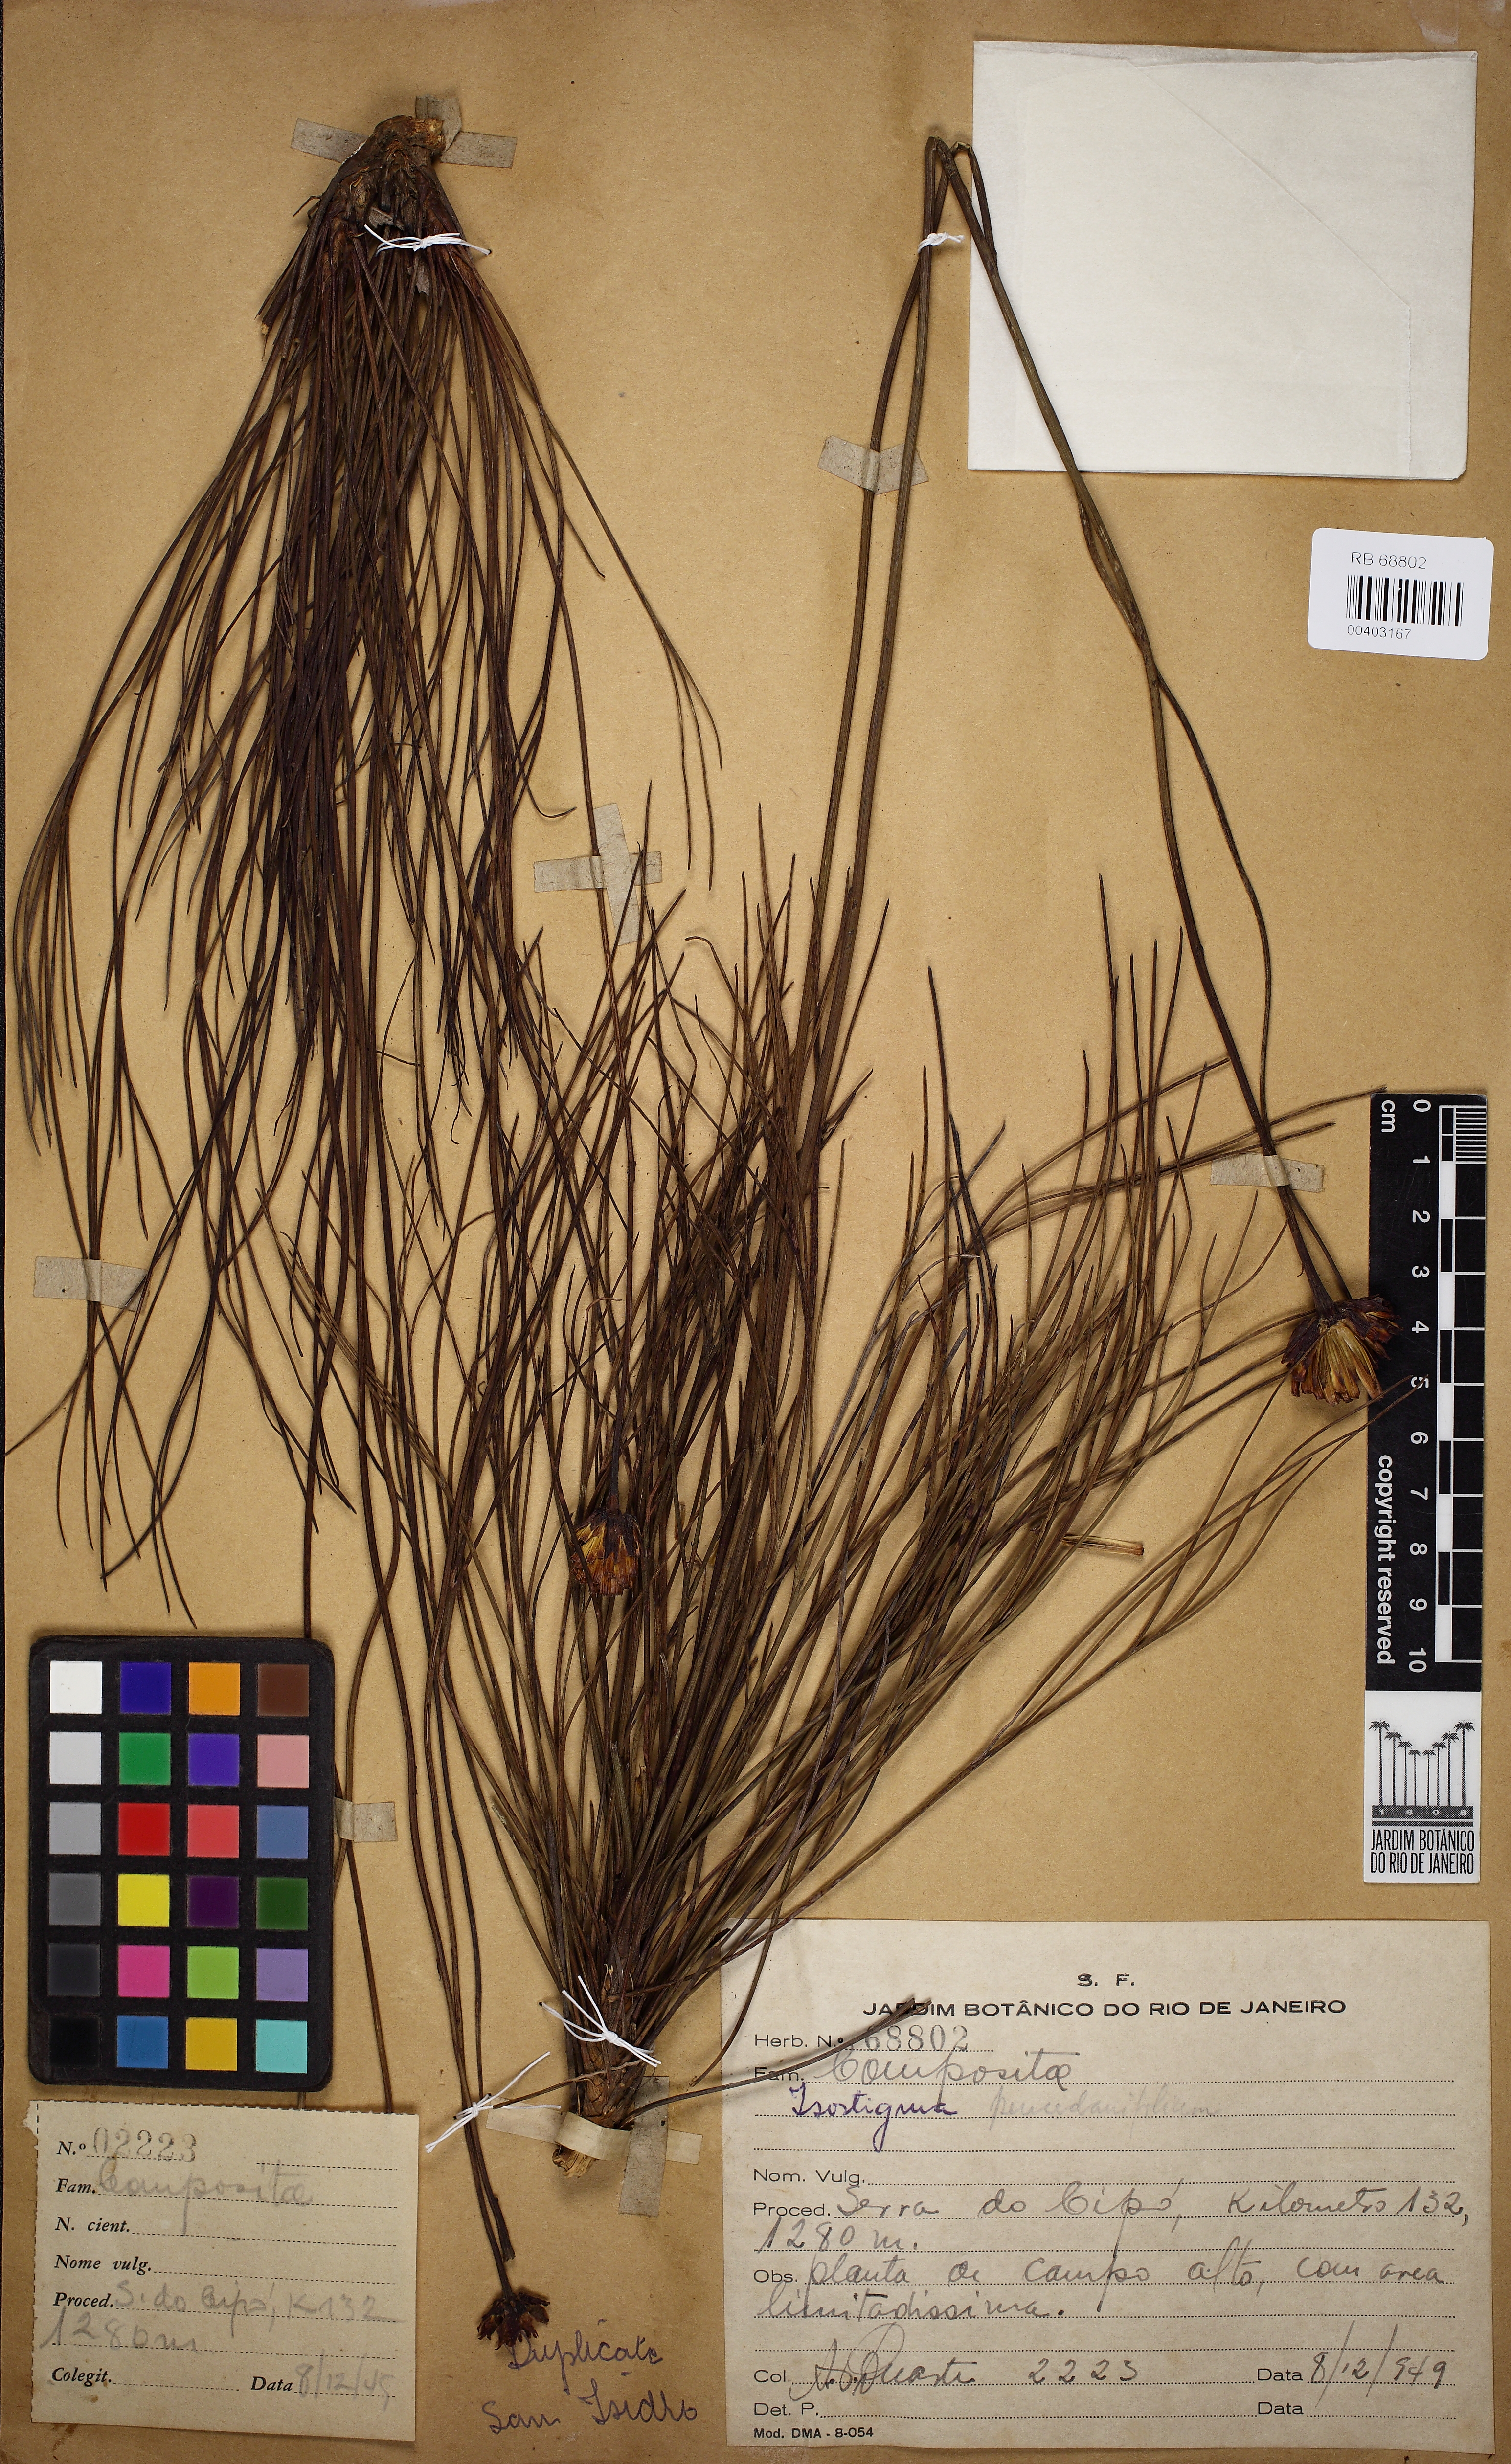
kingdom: Plantae
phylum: Tracheophyta
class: Magnoliopsida
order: Asterales
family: Asteraceae
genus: Isostigma
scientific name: Isostigma peucedanifolium
